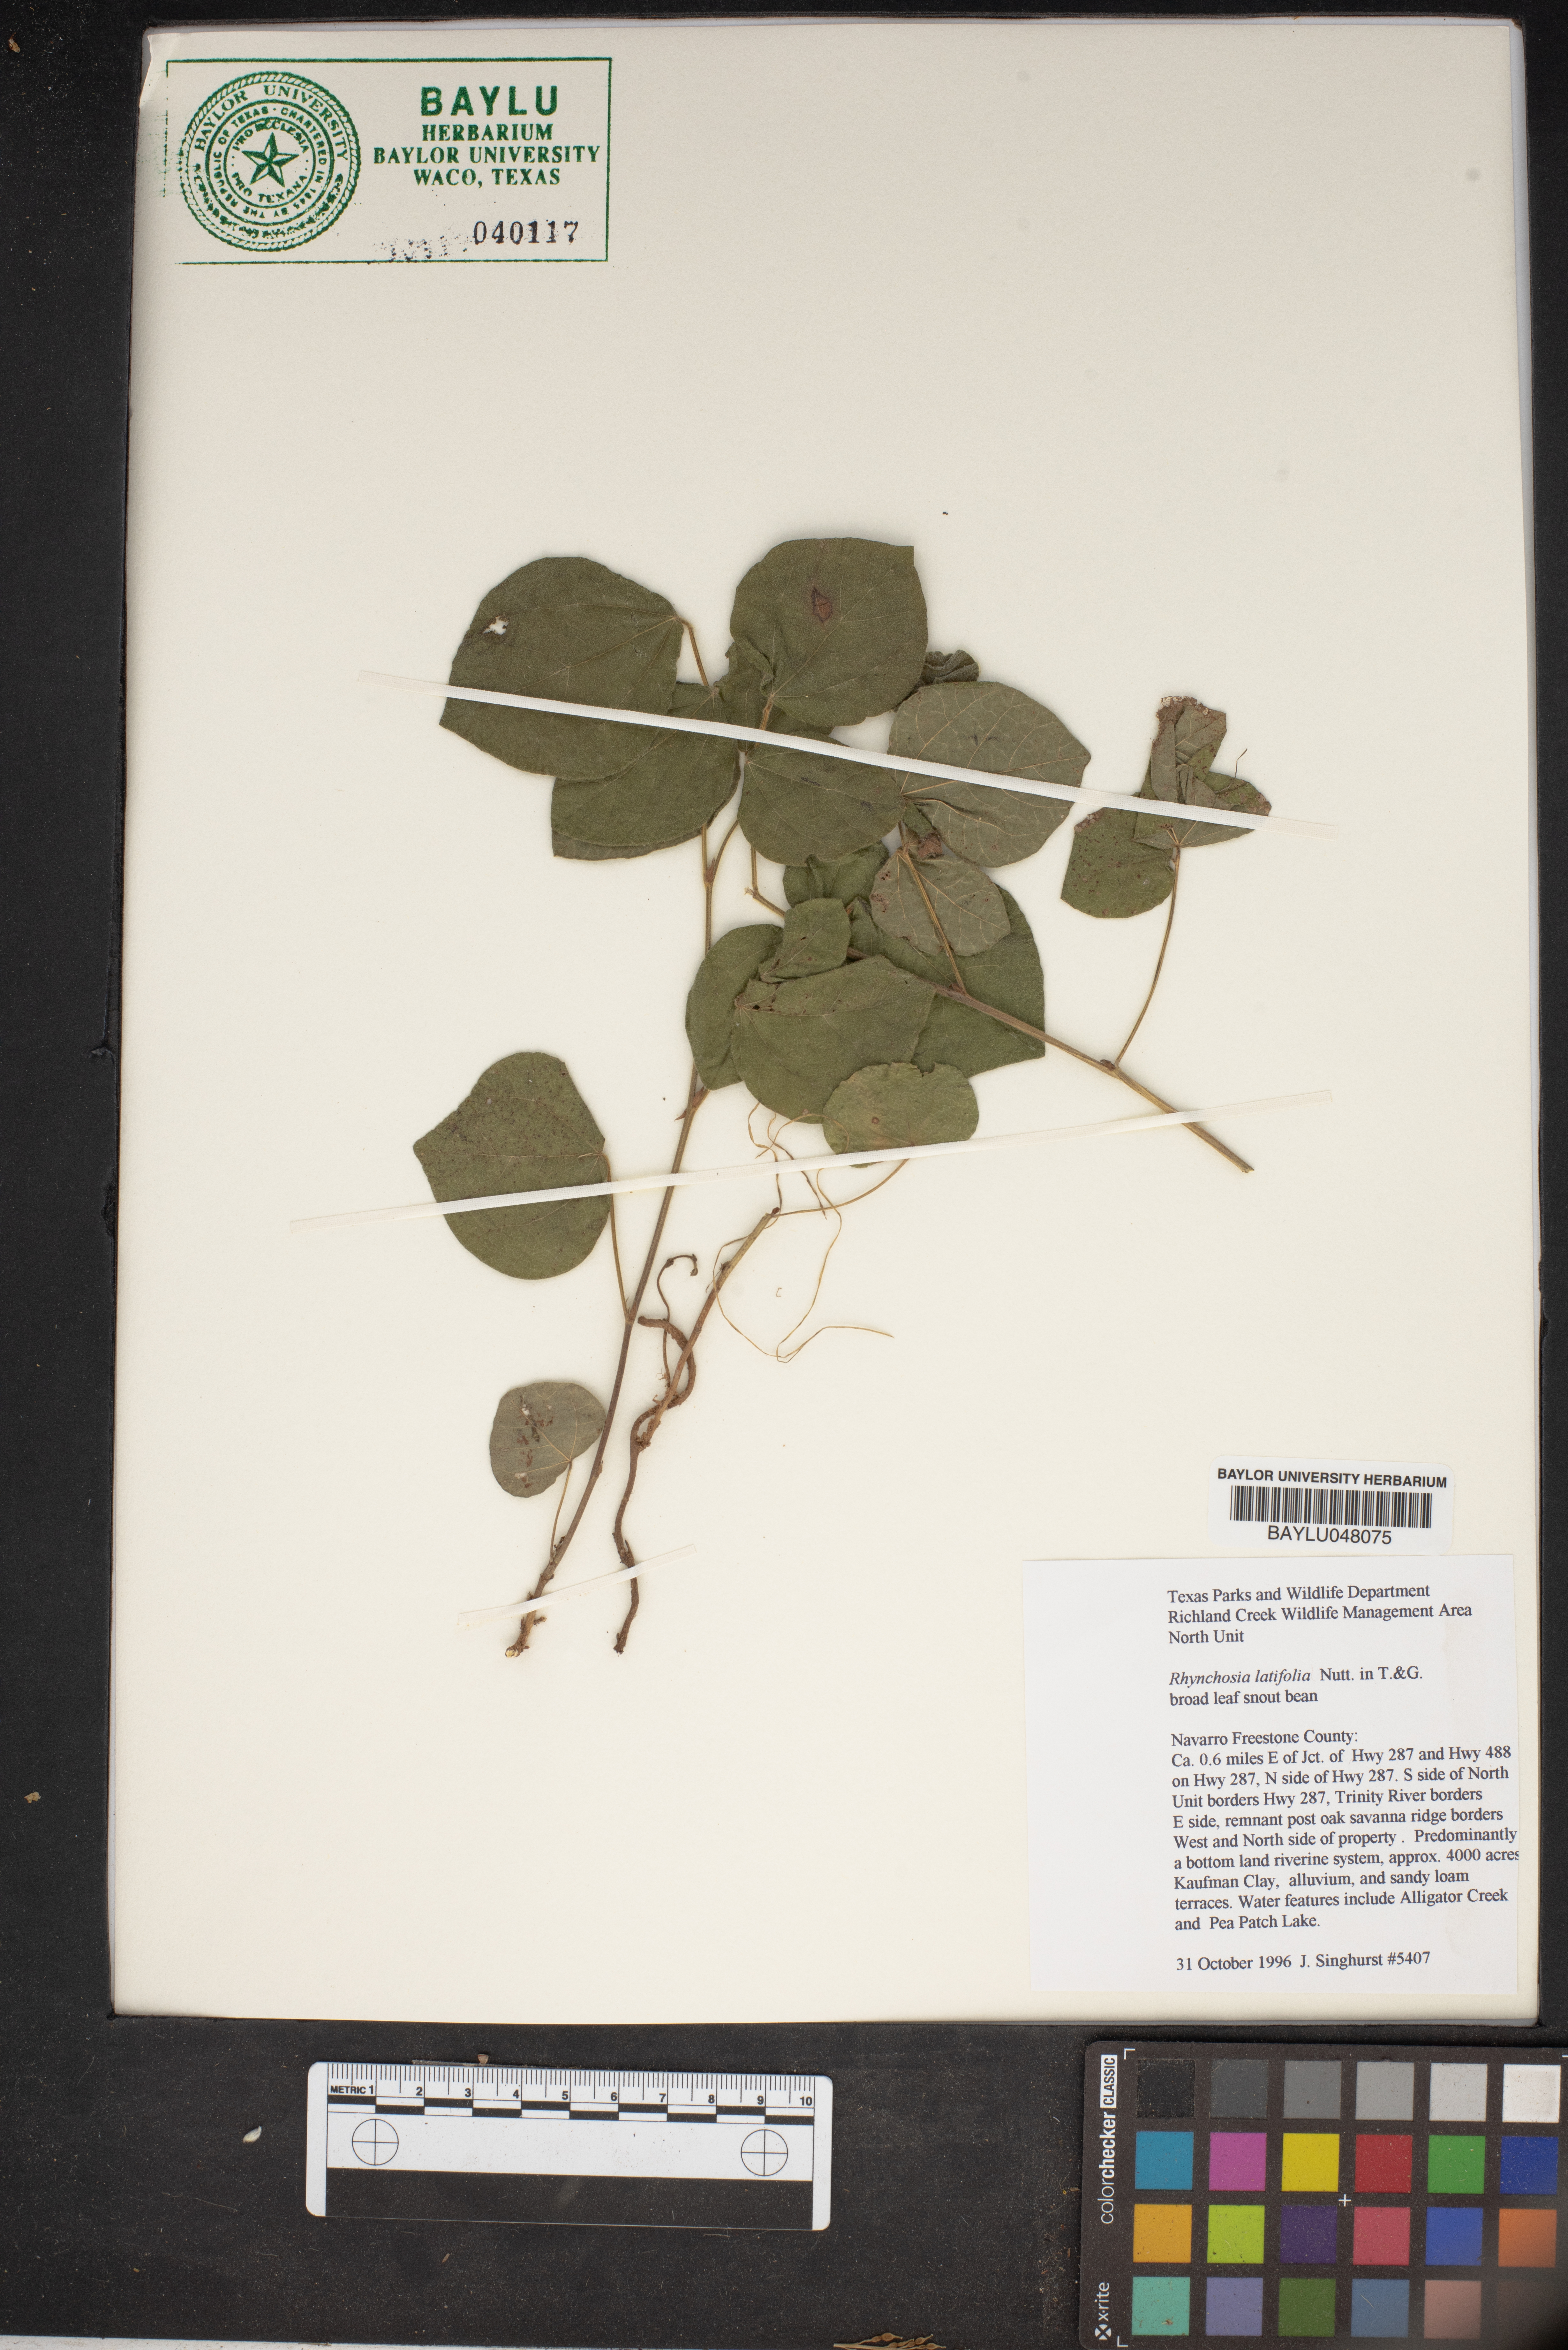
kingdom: Plantae
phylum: Tracheophyta
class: Magnoliopsida
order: Fabales
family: Fabaceae
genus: Rhynchosia
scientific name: Rhynchosia latifolia
